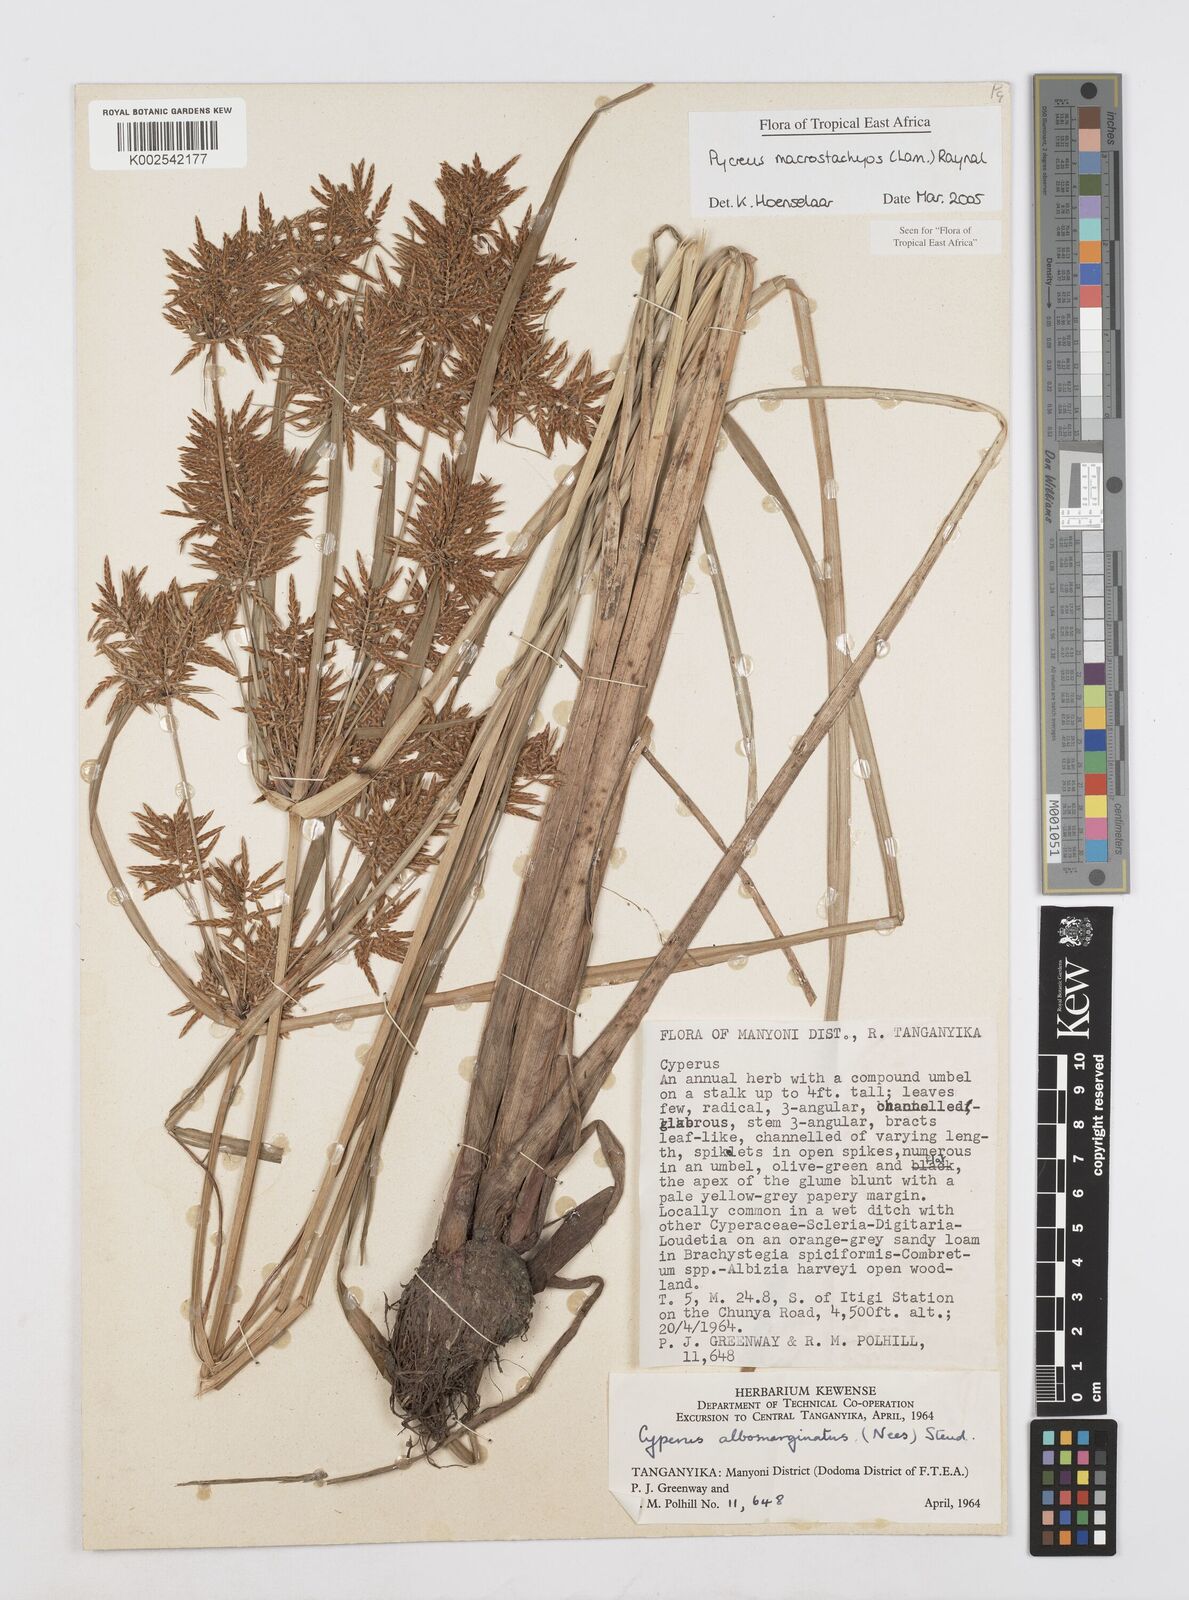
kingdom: Plantae
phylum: Tracheophyta
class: Liliopsida
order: Poales
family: Cyperaceae
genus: Cyperus
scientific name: Cyperus macrostachyos
